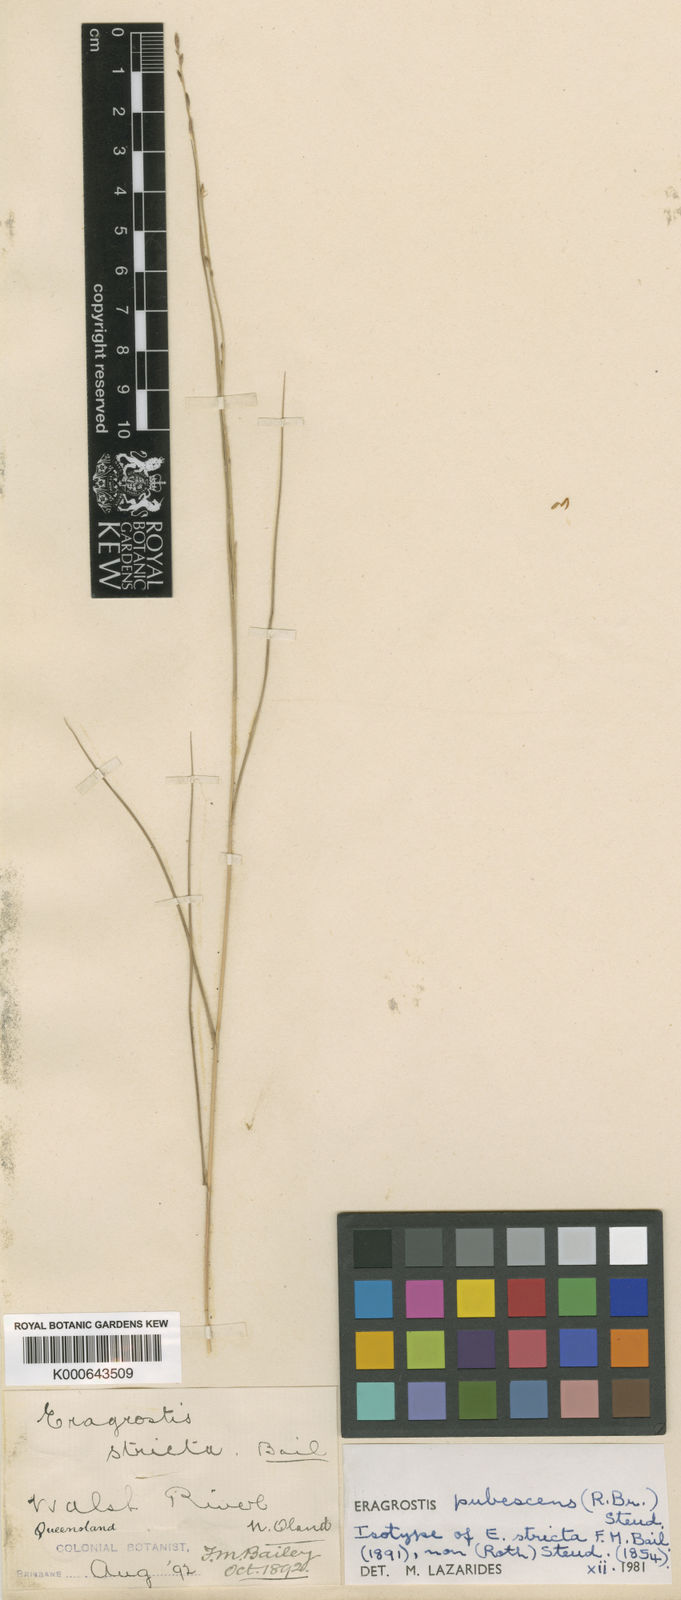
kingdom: Plantae
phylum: Tracheophyta
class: Liliopsida
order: Poales
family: Poaceae
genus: Eragrostis
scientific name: Eragrostis pubescens
